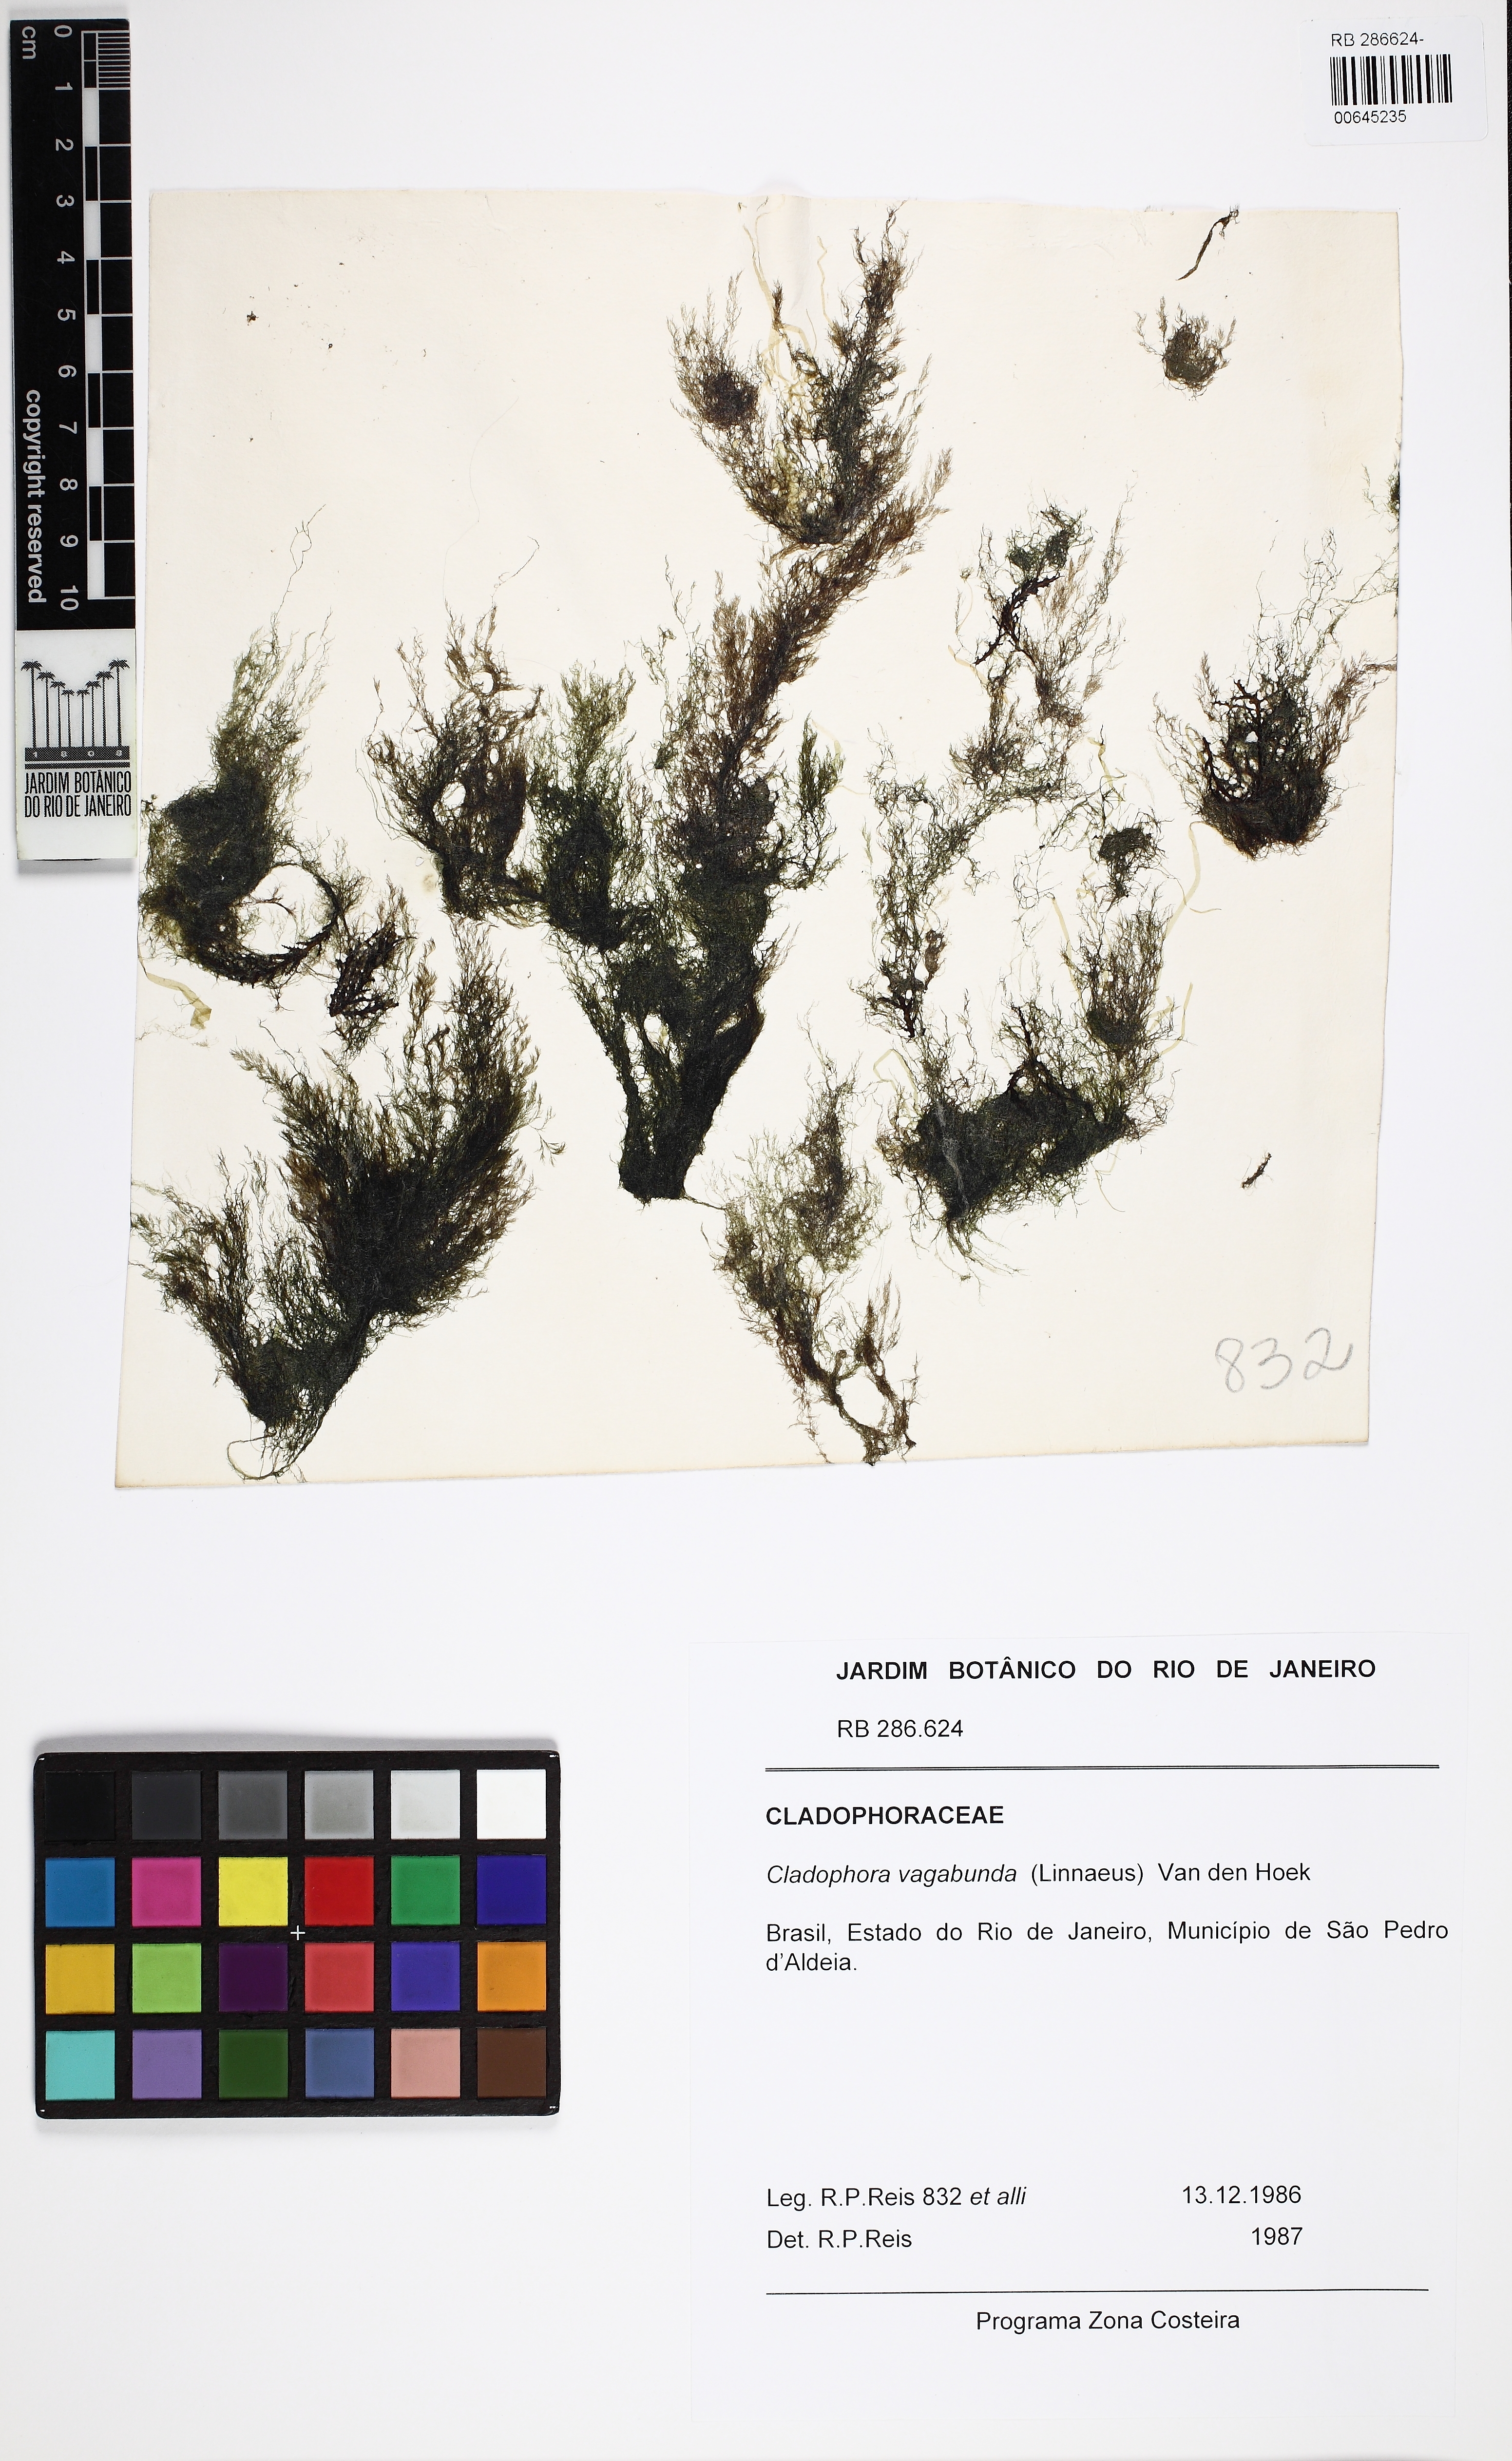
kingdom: Plantae
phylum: Chlorophyta
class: Ulvophyceae
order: Cladophorales
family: Cladophoraceae
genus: Cladophora
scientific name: Cladophora vagabunda
